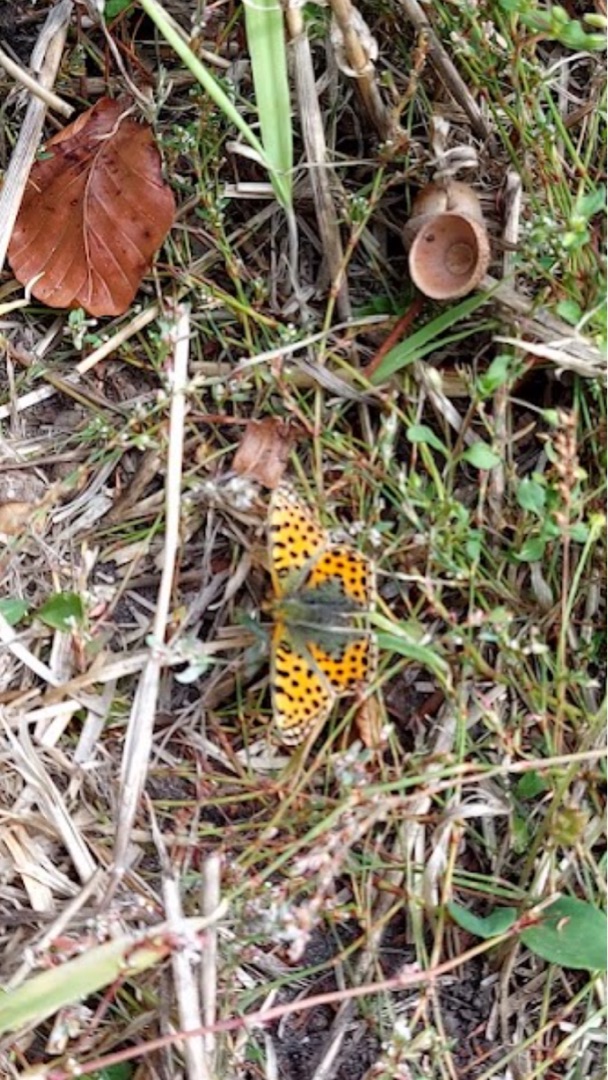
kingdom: Animalia
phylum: Arthropoda
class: Insecta
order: Lepidoptera
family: Nymphalidae
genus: Issoria
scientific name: Issoria lathonia
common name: Storplettet perlemorsommerfugl
